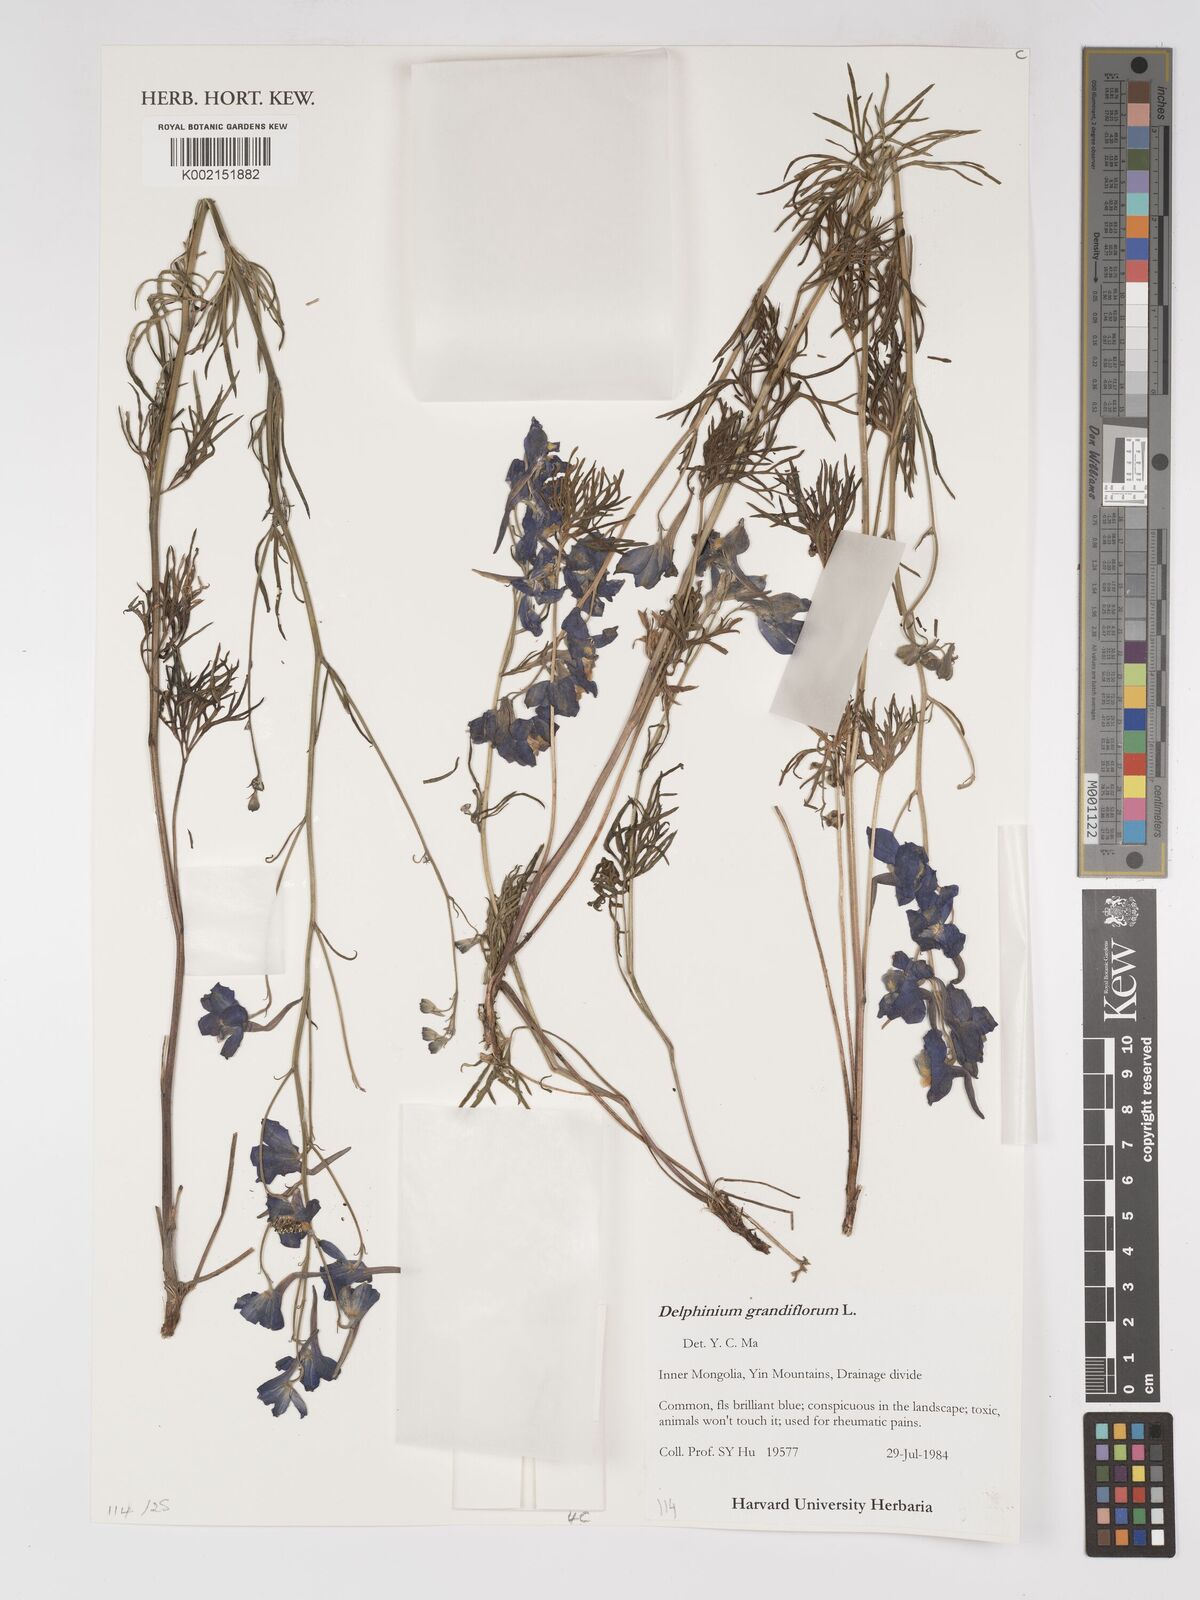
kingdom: Plantae
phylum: Tracheophyta
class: Magnoliopsida
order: Ranunculales
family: Ranunculaceae
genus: Delphinium
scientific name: Delphinium grandiflorum
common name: Siberian larkspur
